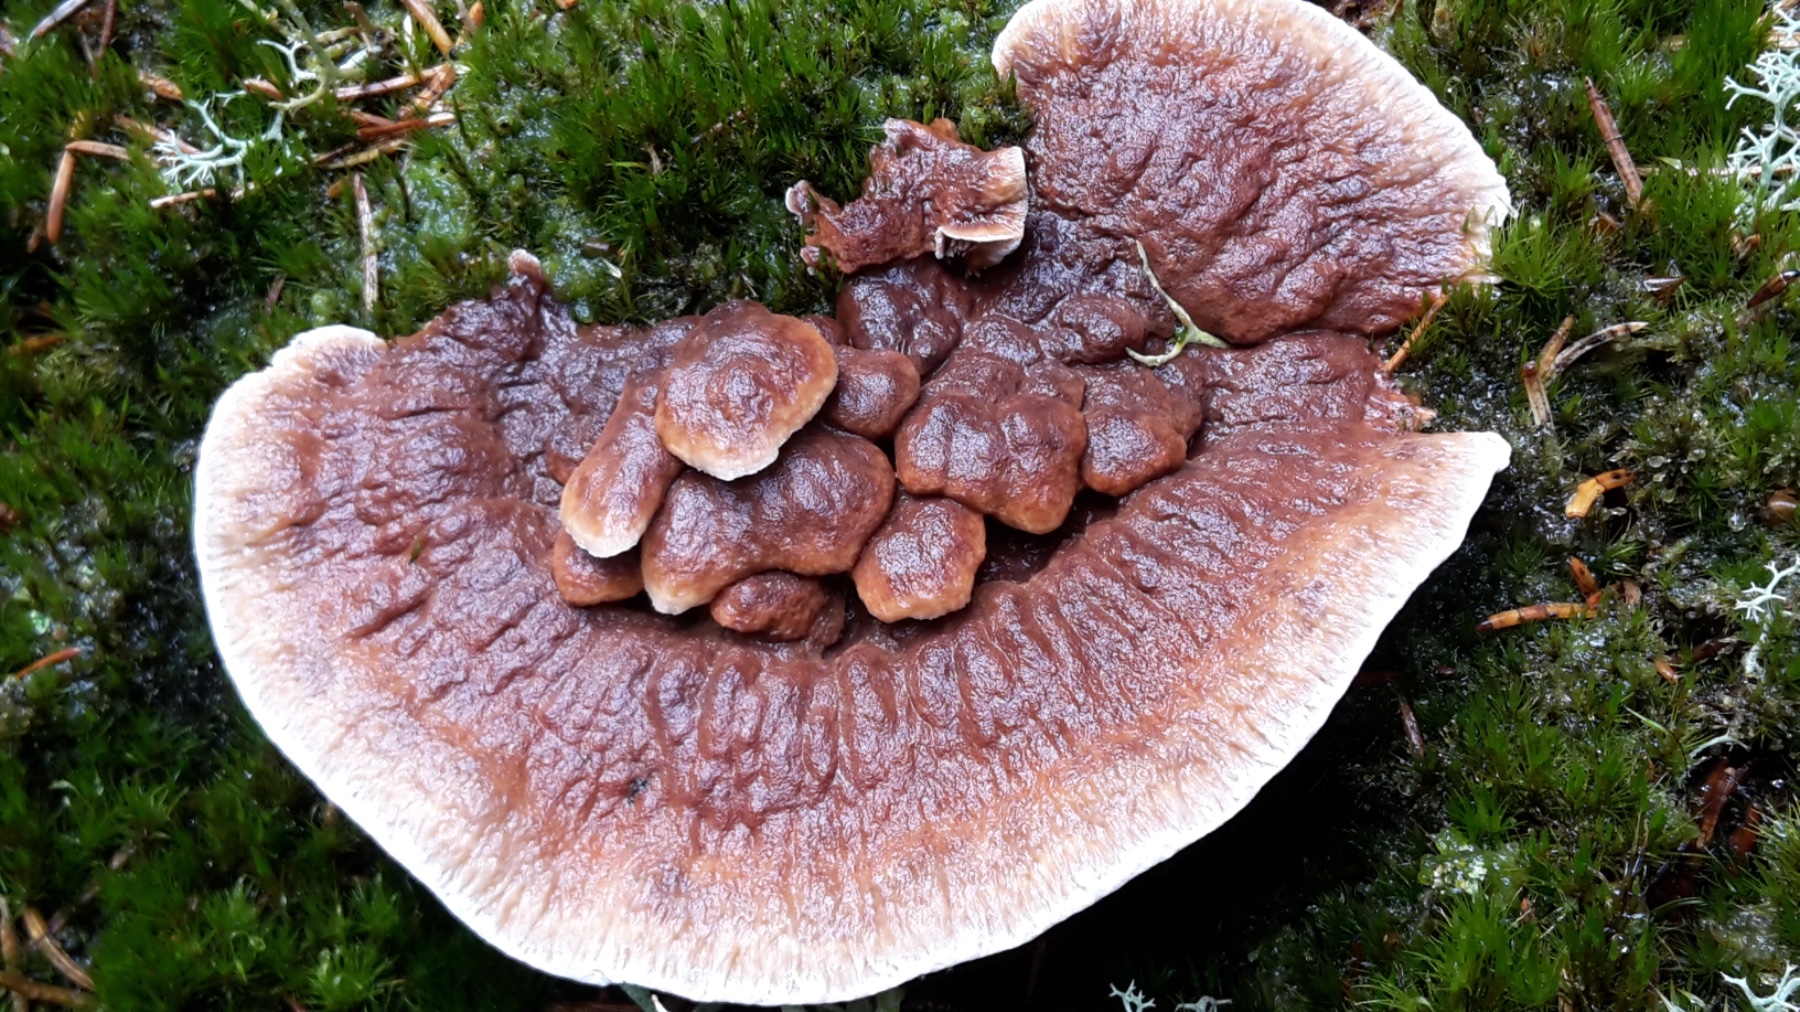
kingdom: Fungi
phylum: Basidiomycota
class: Agaricomycetes
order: Thelephorales
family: Bankeraceae
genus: Hydnellum
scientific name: Hydnellum aurantiacum
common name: orange korkpigsvamp
